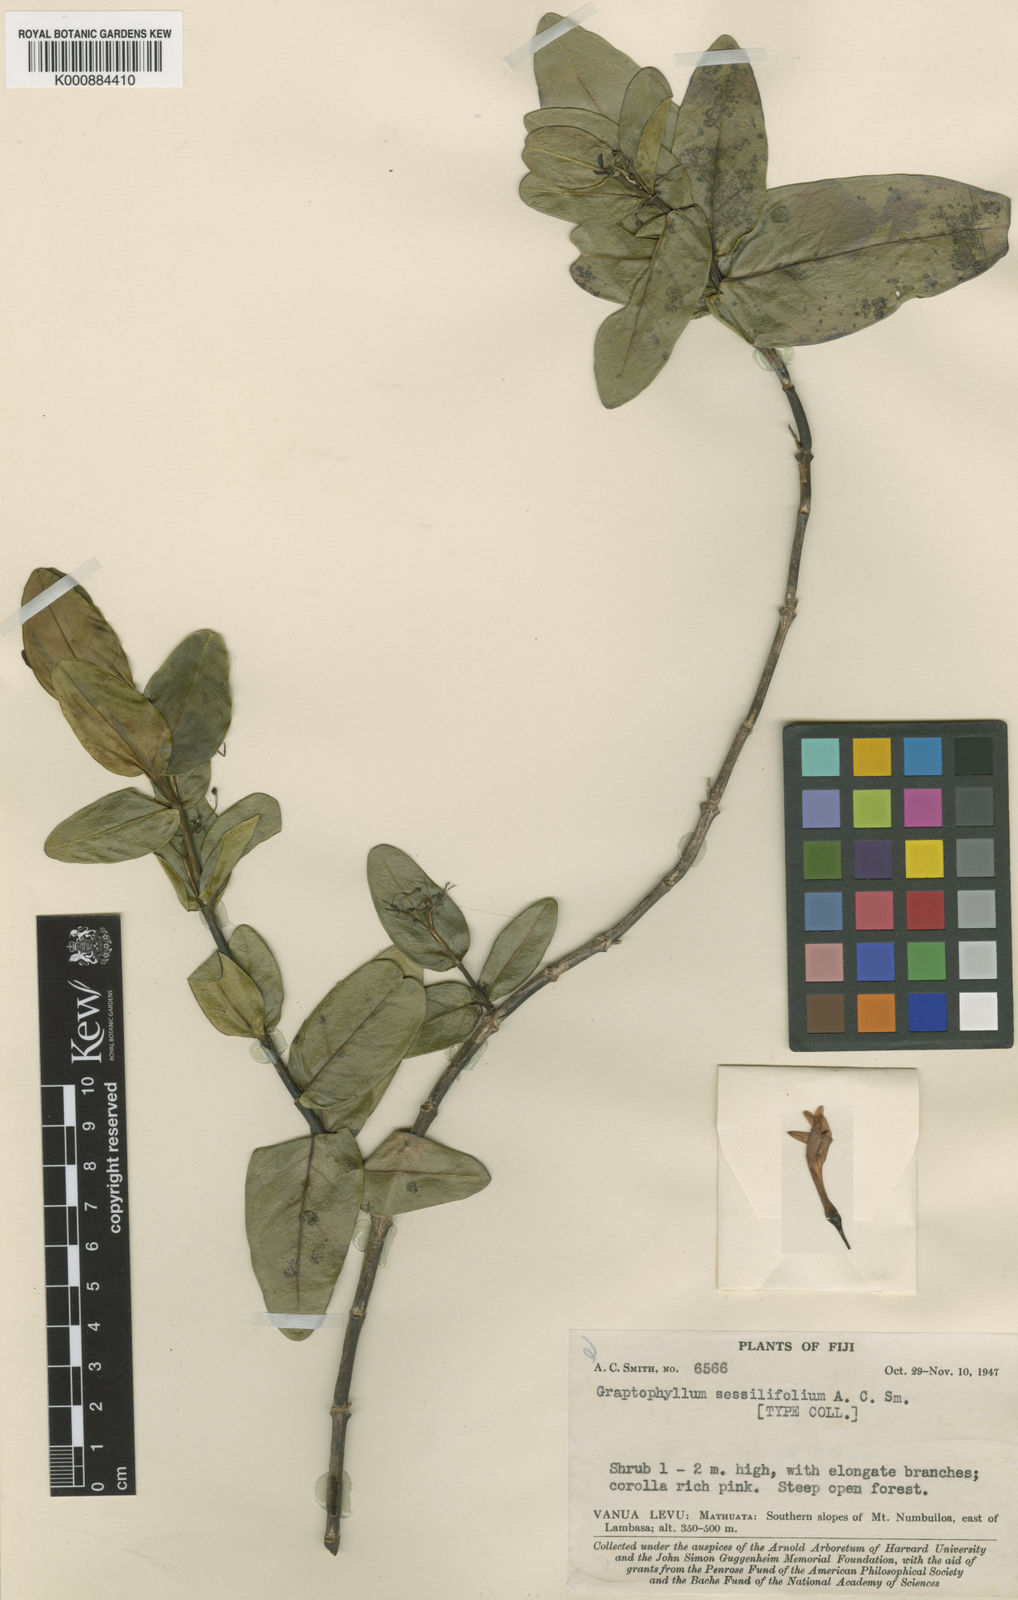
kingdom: Plantae
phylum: Tracheophyta
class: Magnoliopsida
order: Lamiales
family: Acanthaceae
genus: Graptophyllum
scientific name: Graptophyllum sessilifolium
